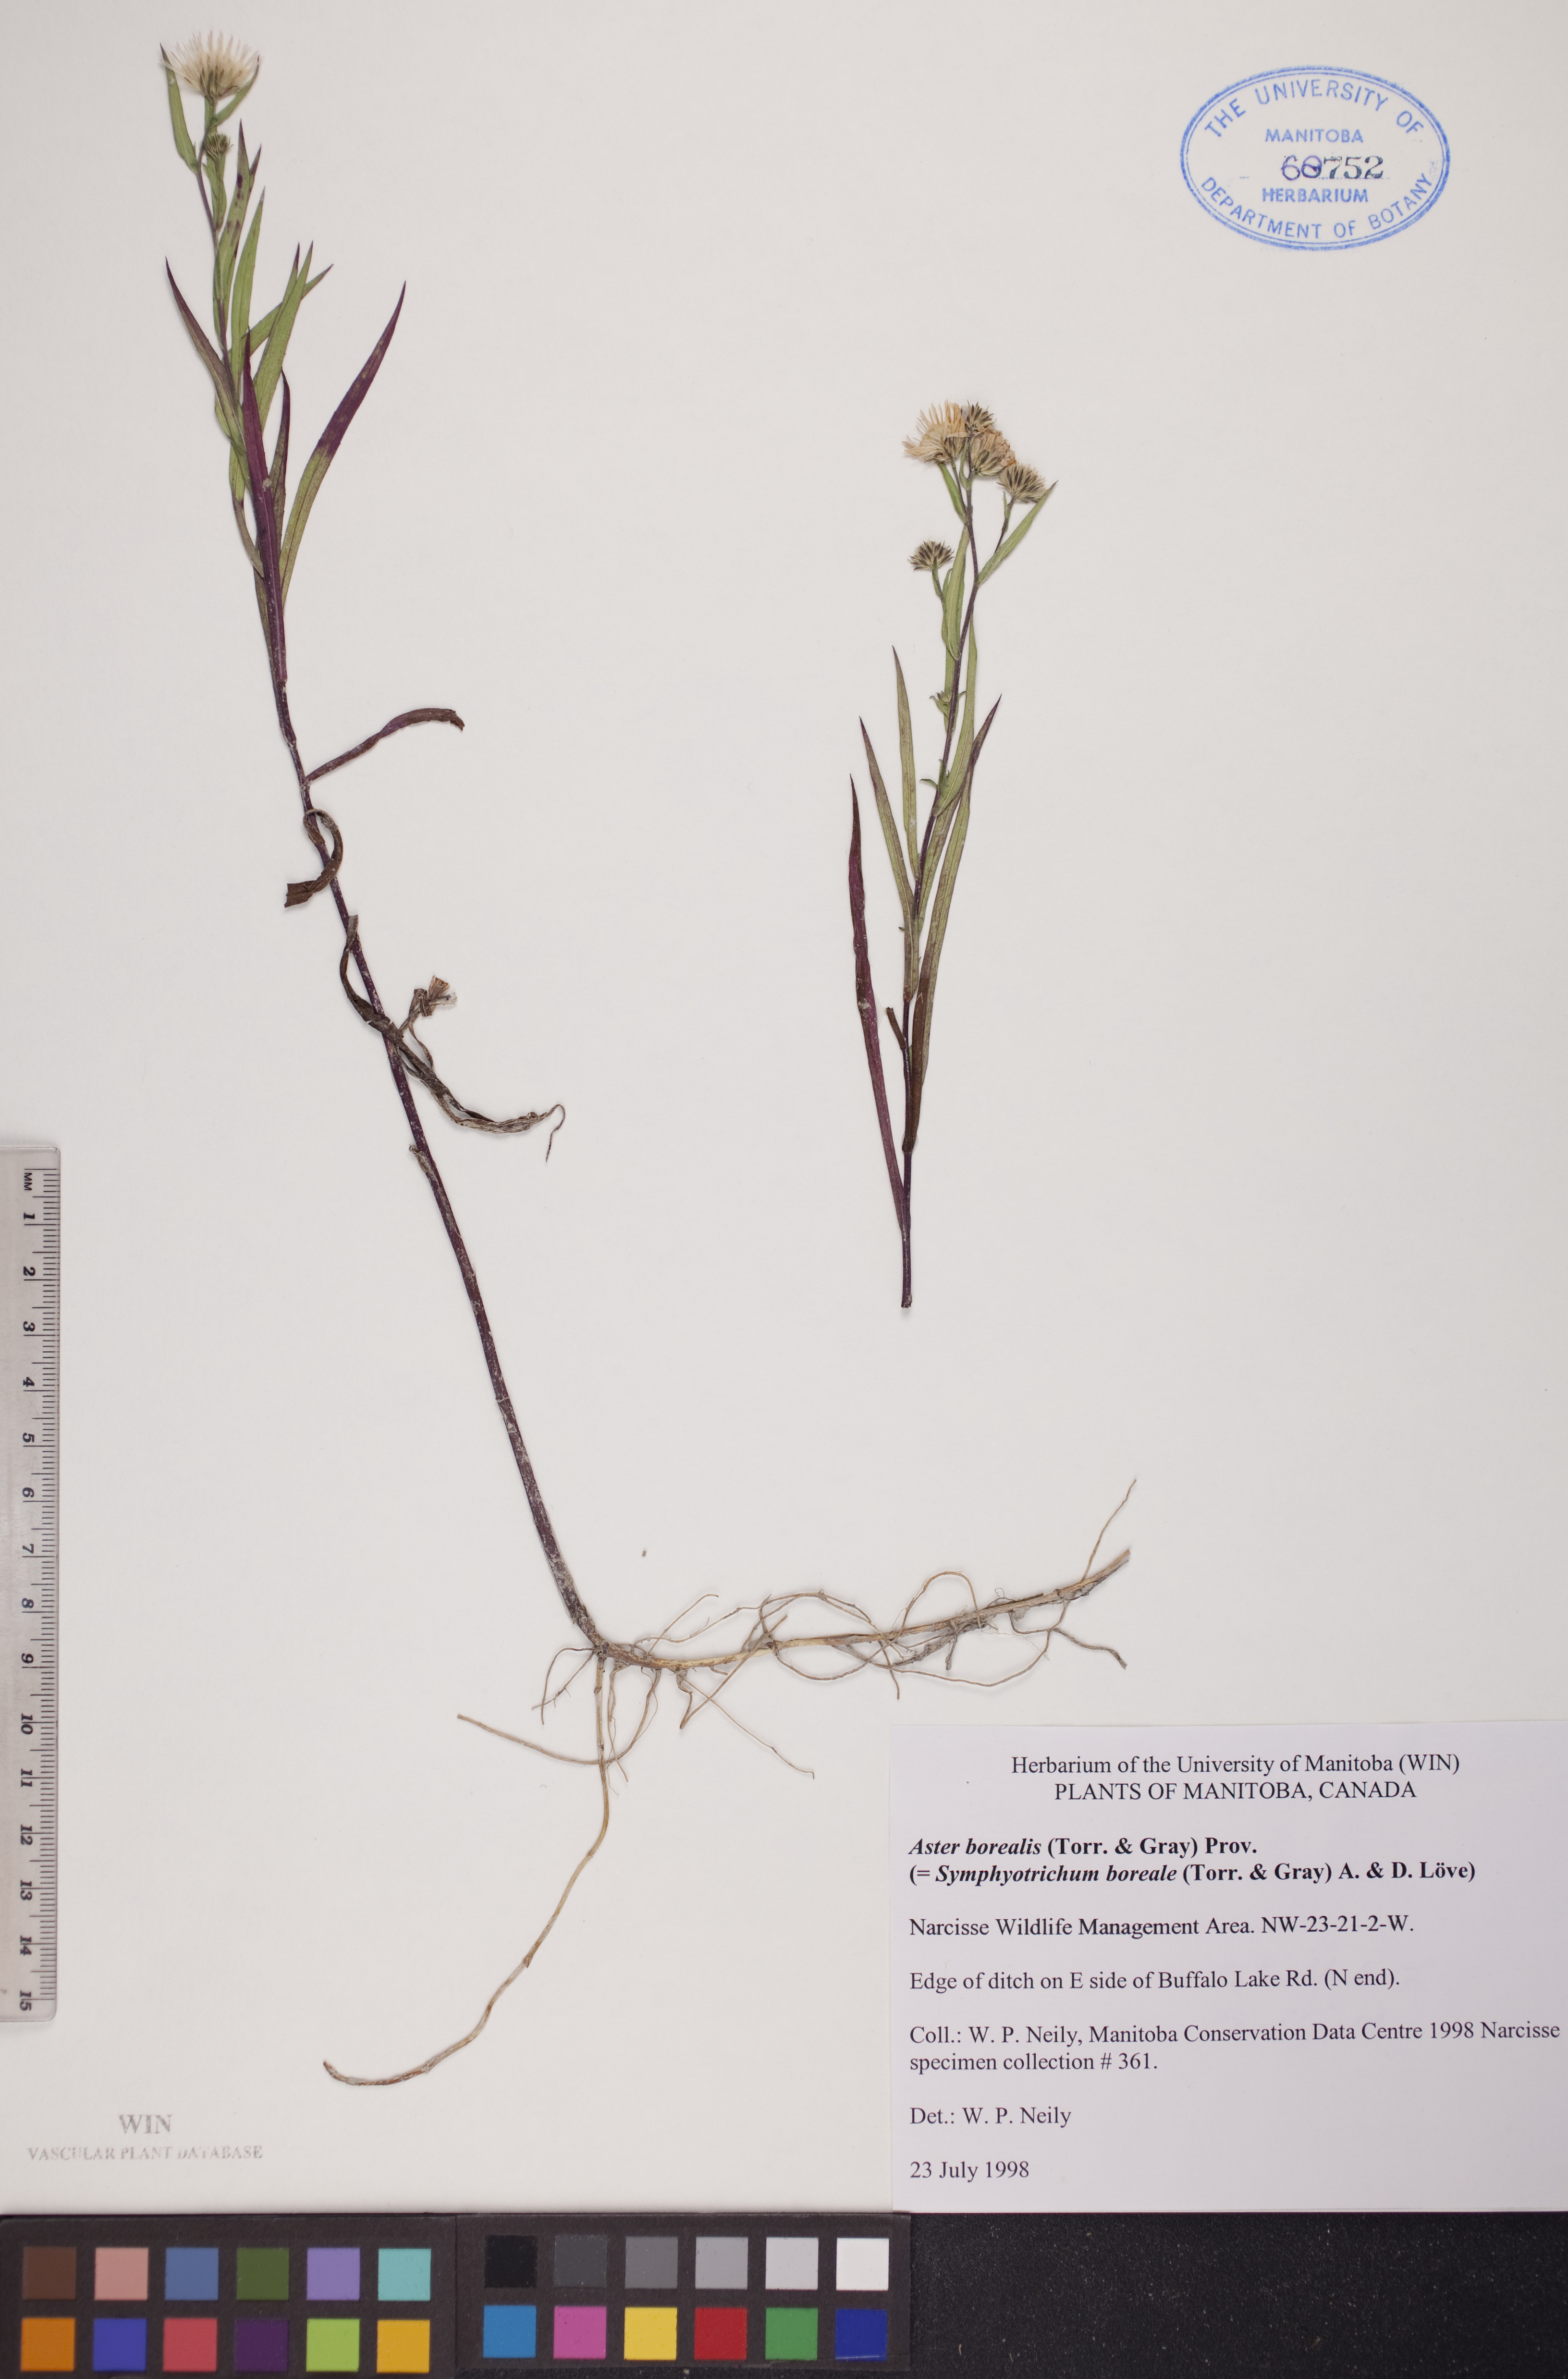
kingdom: Plantae
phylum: Tracheophyta
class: Magnoliopsida
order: Asterales
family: Asteraceae
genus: Symphyotrichum
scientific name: Symphyotrichum boreale
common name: Northern bog aster
